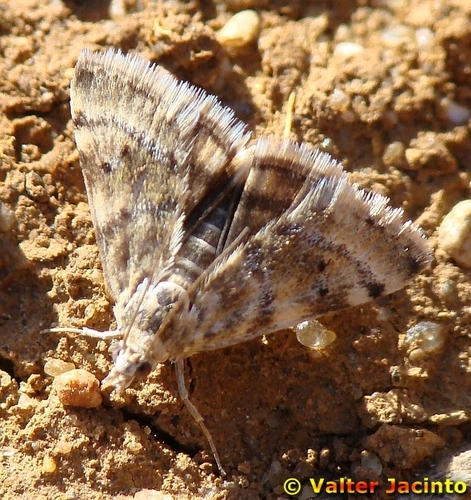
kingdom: Animalia
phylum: Arthropoda
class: Insecta
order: Lepidoptera
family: Crambidae
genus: Noctuelia
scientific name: Noctuelia Aporodes floralis
